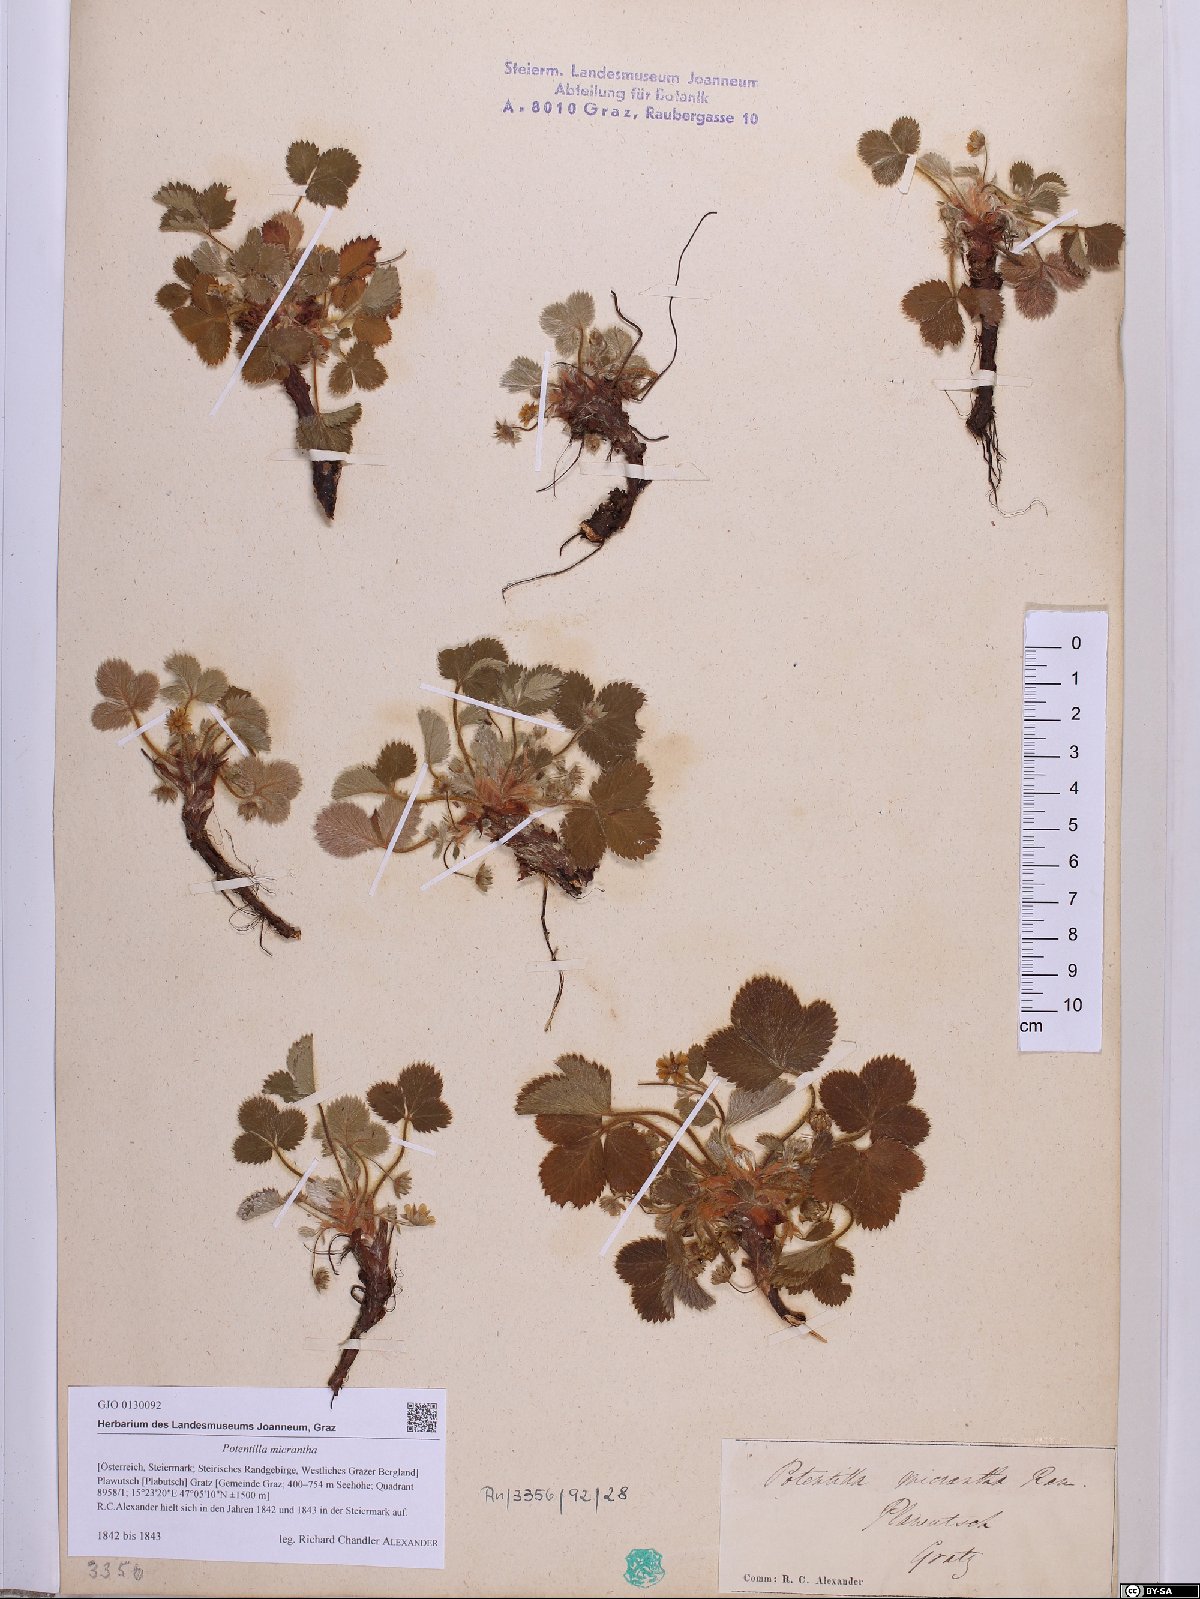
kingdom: Plantae
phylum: Tracheophyta
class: Magnoliopsida
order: Rosales
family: Rosaceae
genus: Potentilla
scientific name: Potentilla micrantha
